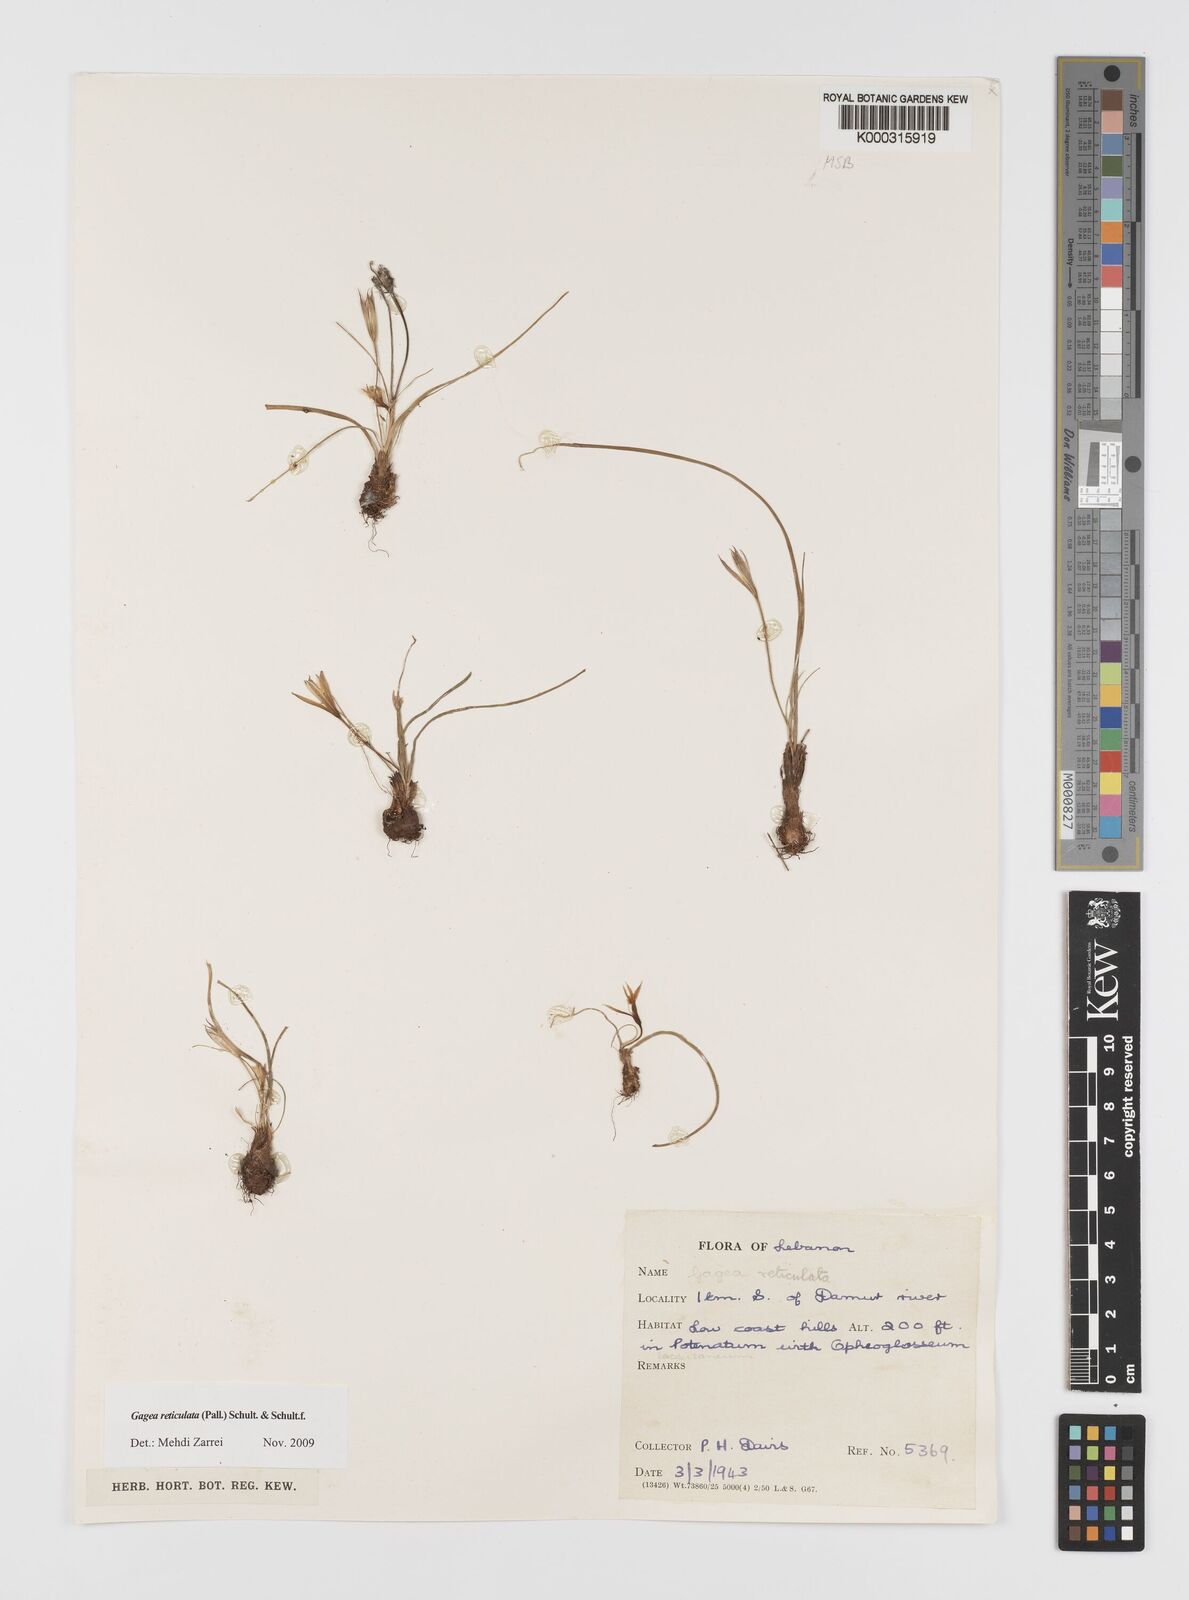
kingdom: Plantae
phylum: Tracheophyta
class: Liliopsida
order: Liliales
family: Liliaceae
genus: Gagea
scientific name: Gagea reticulata
